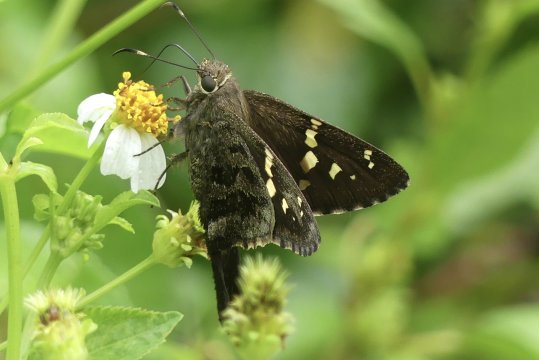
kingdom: Animalia
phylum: Arthropoda
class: Insecta
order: Lepidoptera
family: Hesperiidae
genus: Urbanus
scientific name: Urbanus dorantes
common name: Dorantes Longtail
